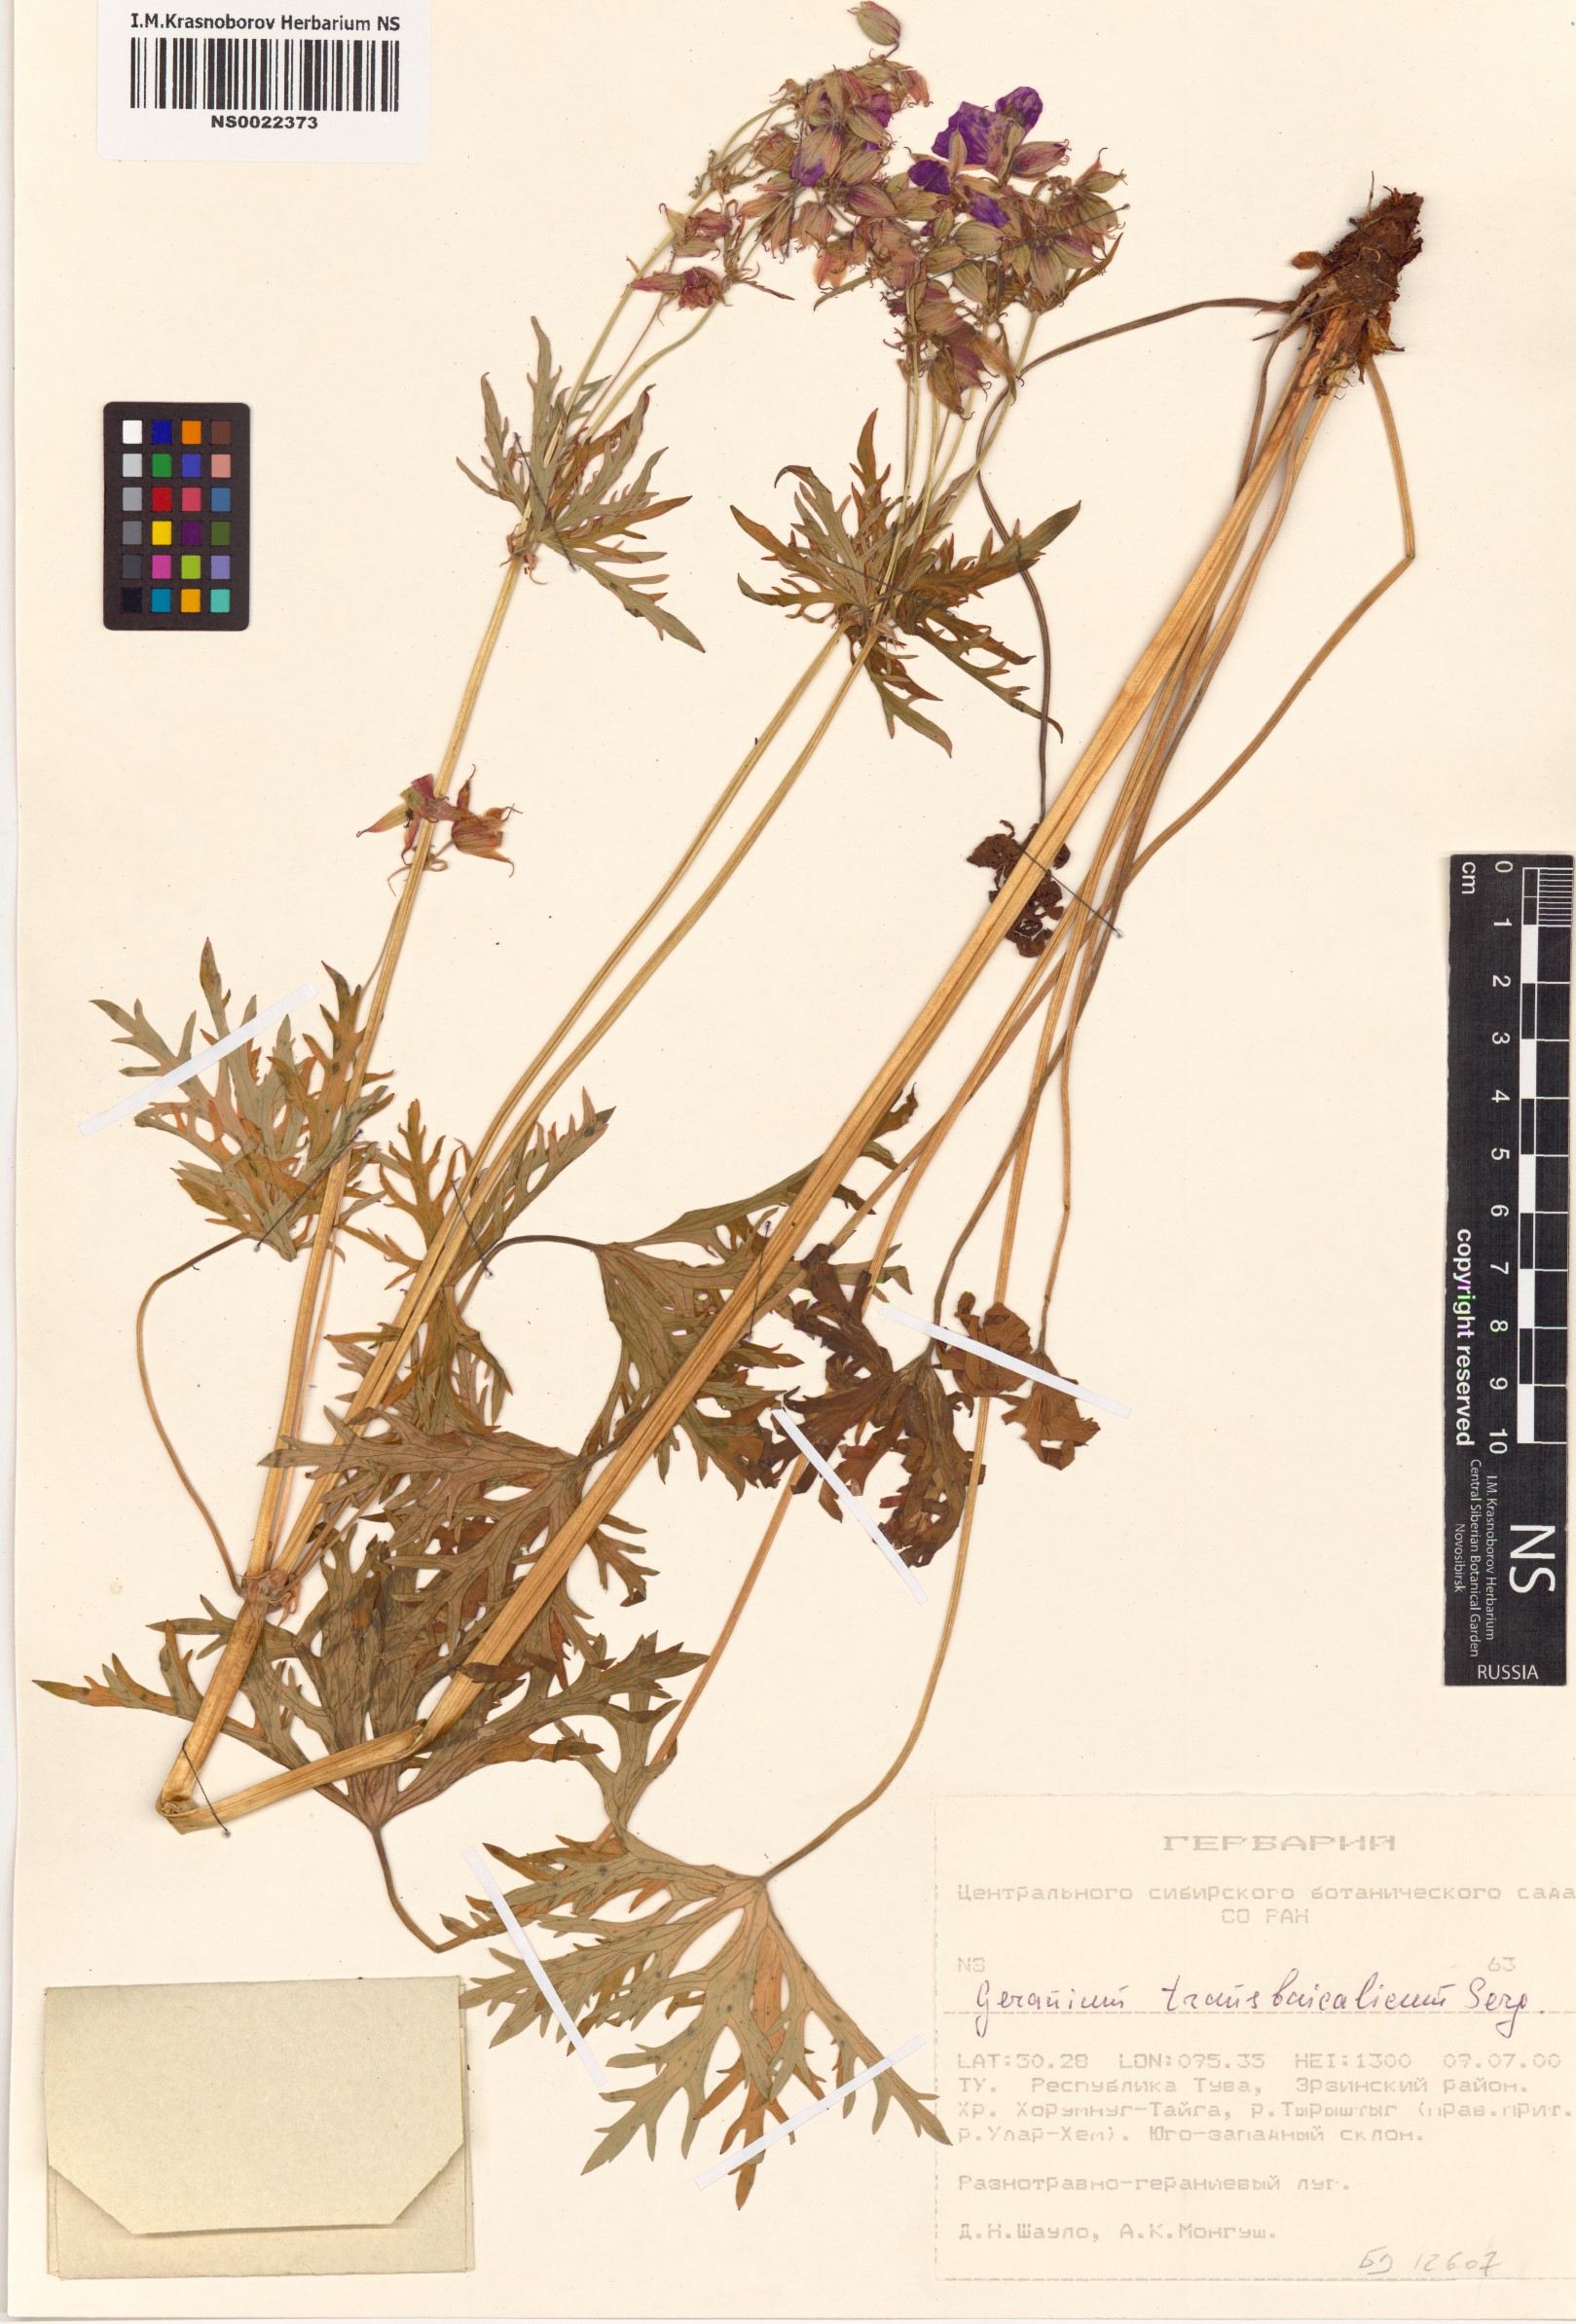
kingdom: Plantae
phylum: Tracheophyta
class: Magnoliopsida
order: Geraniales
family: Geraniaceae
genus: Geranium
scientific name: Geranium pratense
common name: Meadow crane's-bill
